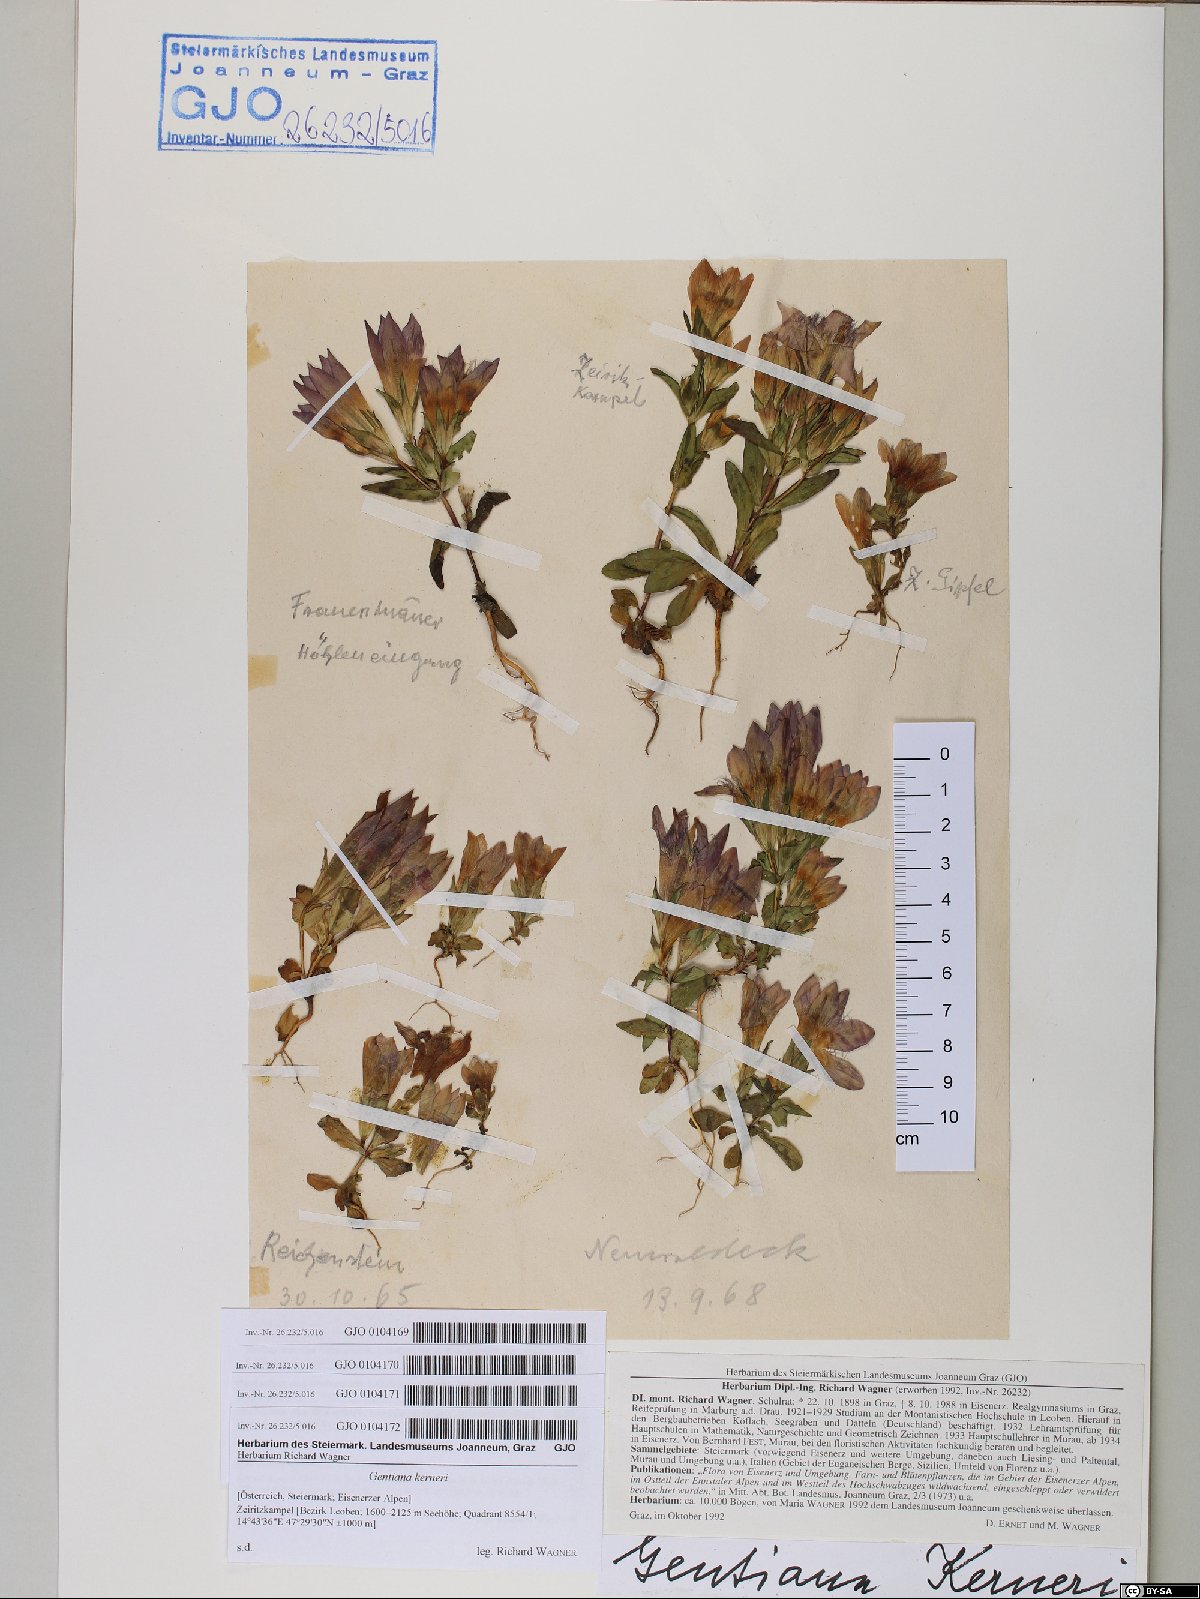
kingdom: Plantae
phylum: Tracheophyta
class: Magnoliopsida
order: Gentianales
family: Gentianaceae
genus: Gentianella
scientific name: Gentianella rhaetica
